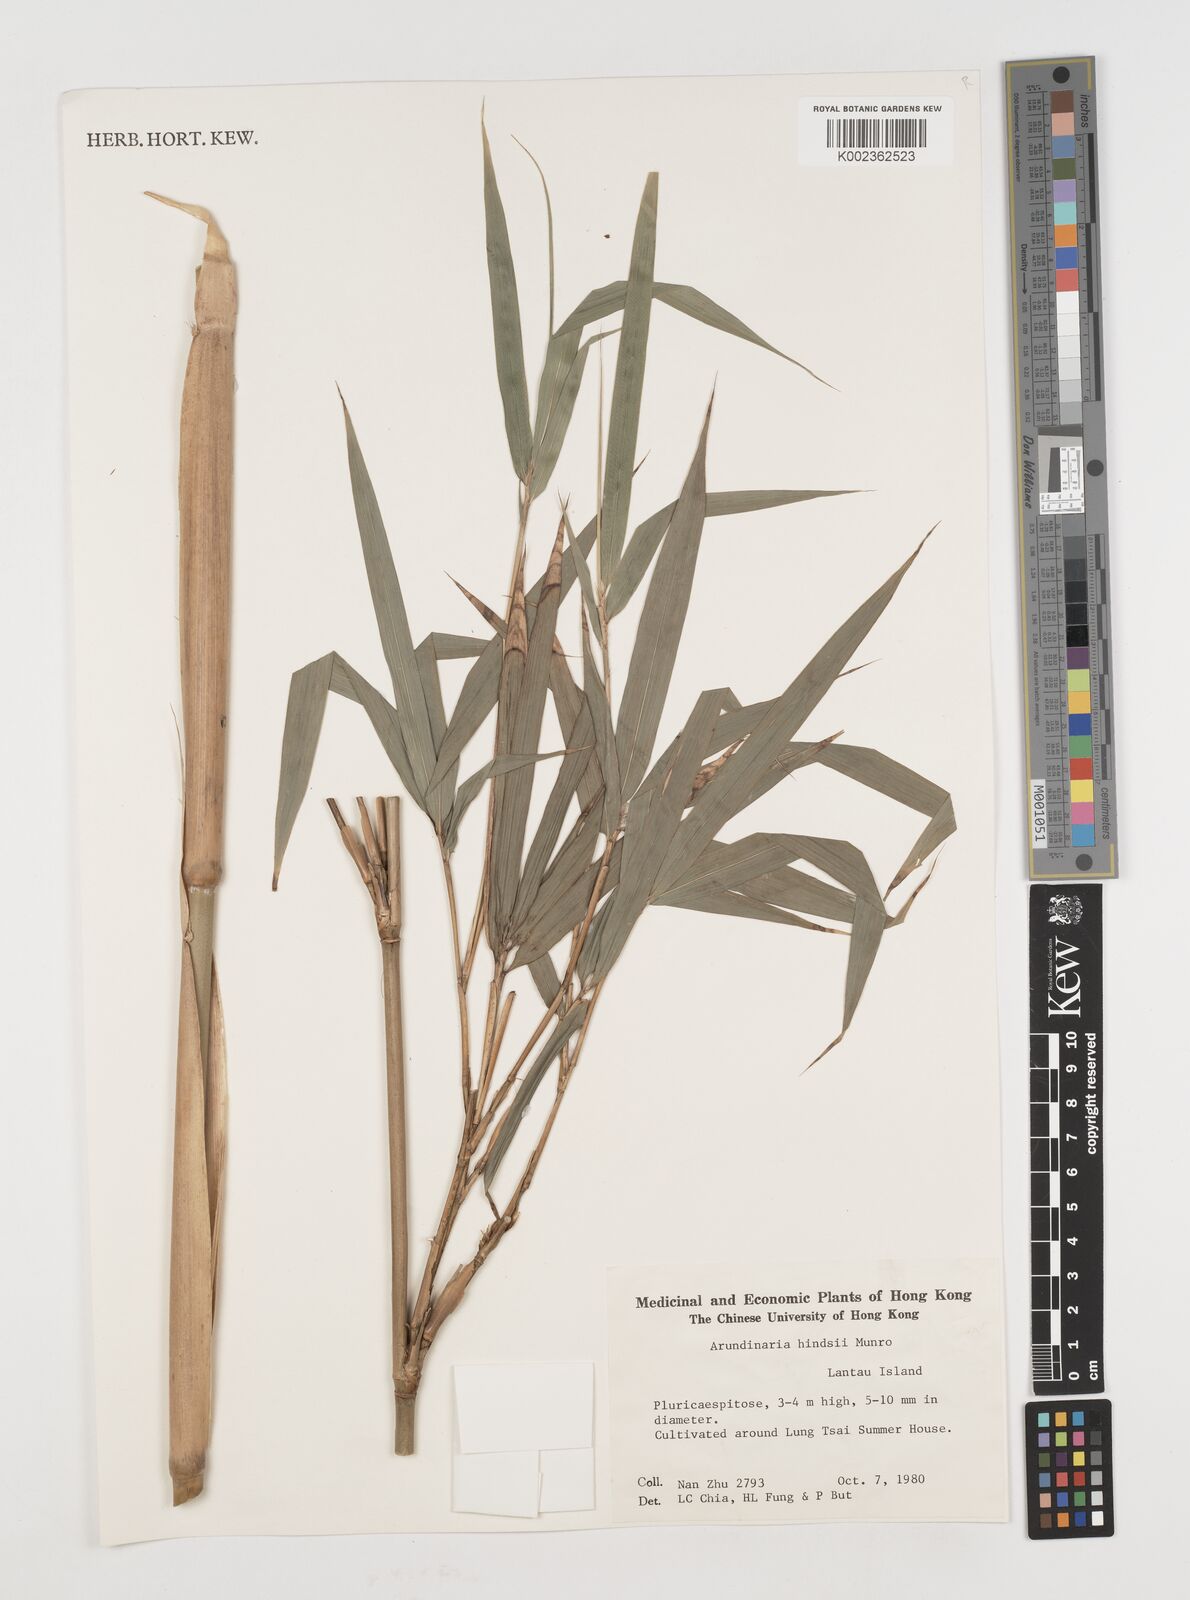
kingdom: Plantae
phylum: Tracheophyta
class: Liliopsida
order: Poales
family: Poaceae
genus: Pseudosasa
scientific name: Pseudosasa hindsii
